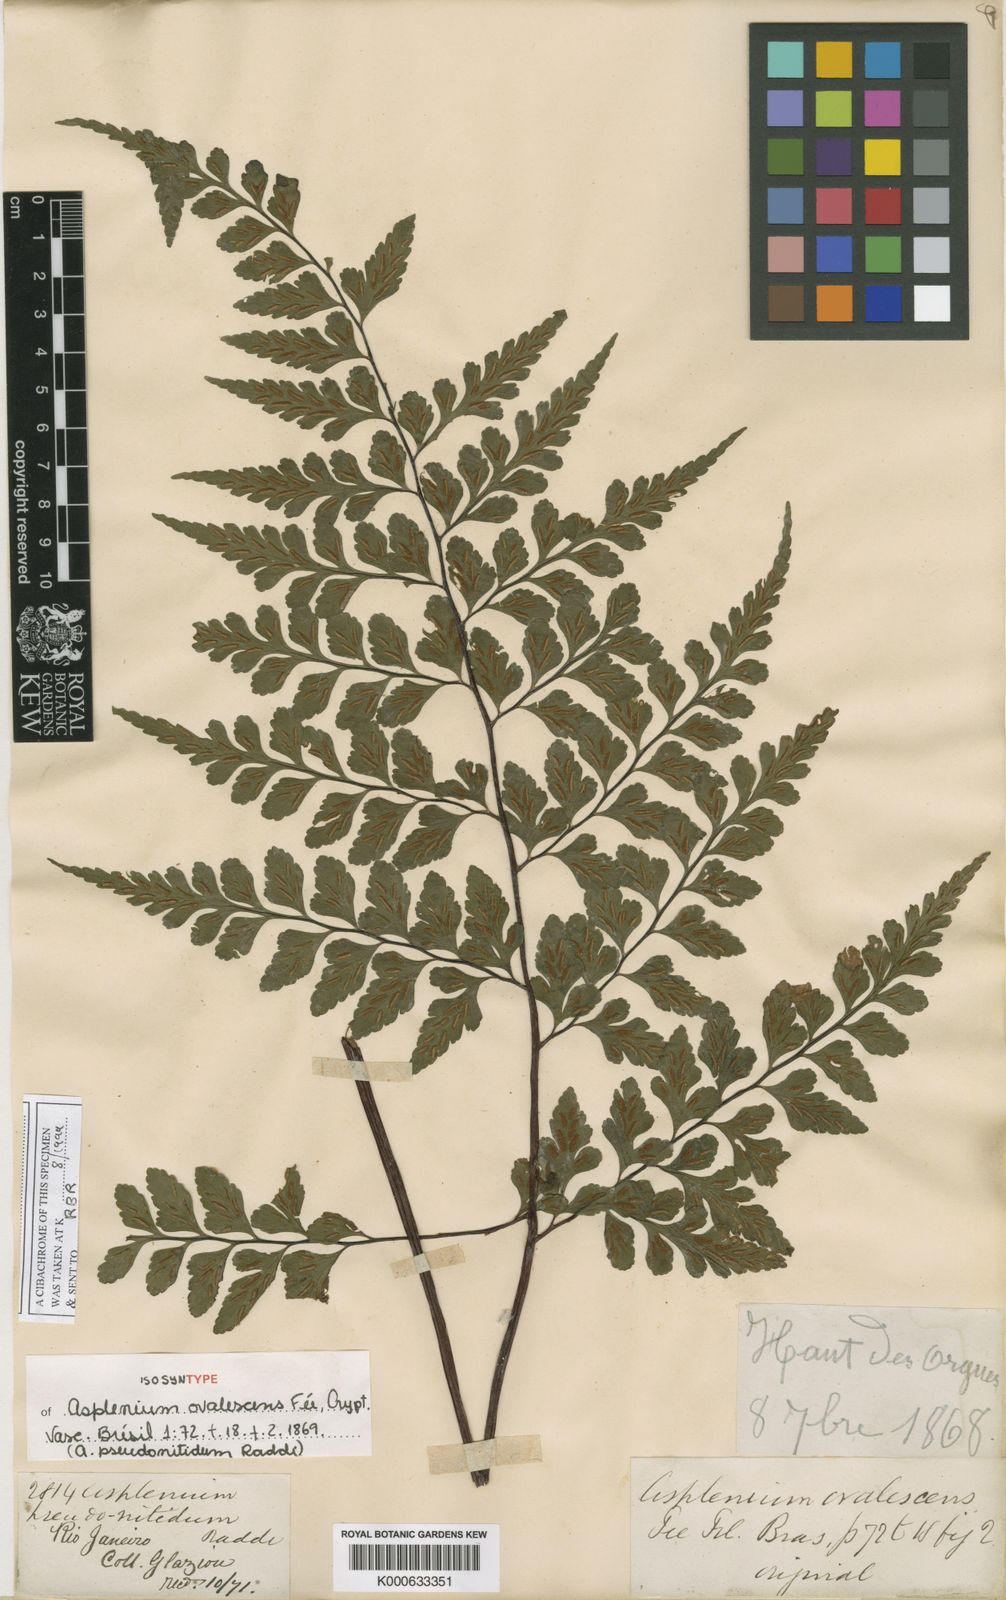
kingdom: Plantae
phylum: Tracheophyta
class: Polypodiopsida
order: Polypodiales
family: Aspleniaceae
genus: Asplenium
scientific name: Asplenium pseudonitidum
